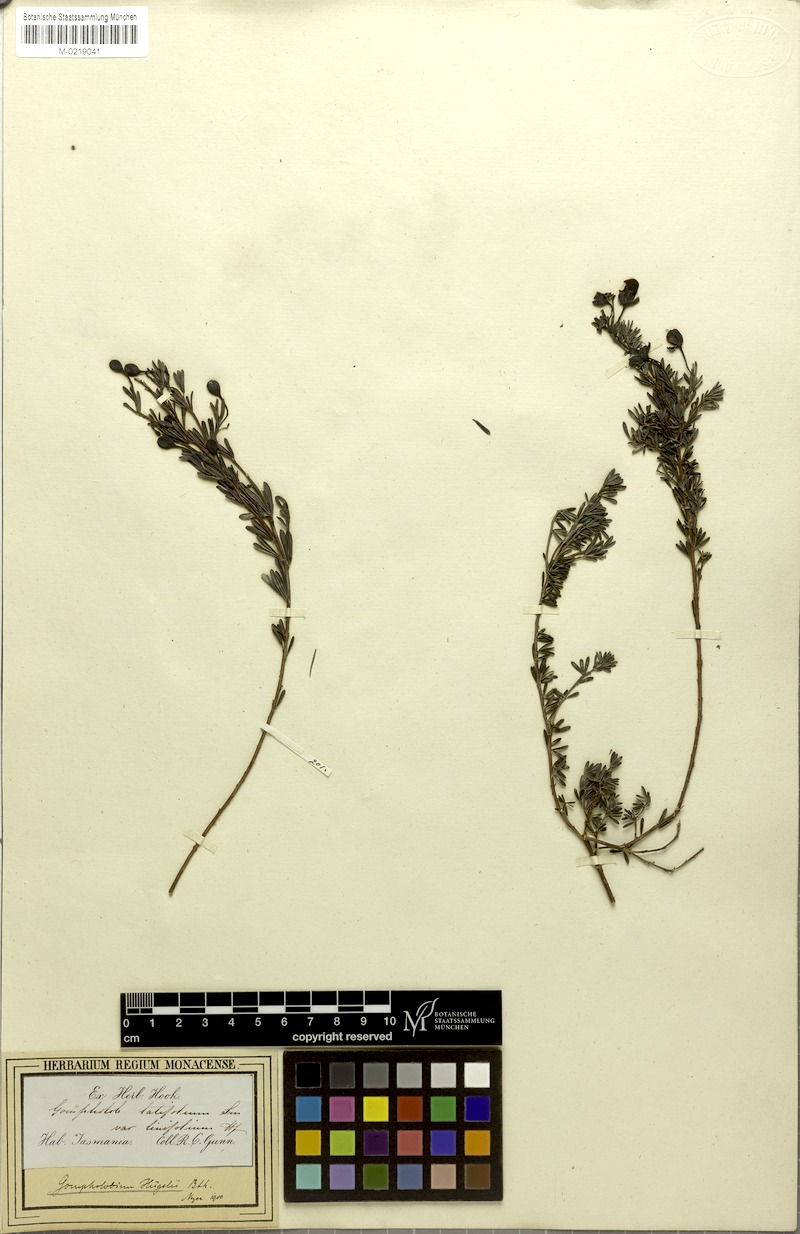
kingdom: Plantae
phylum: Tracheophyta
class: Magnoliopsida
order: Fabales
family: Fabaceae
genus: Gompholobium
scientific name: Gompholobium huegelii
